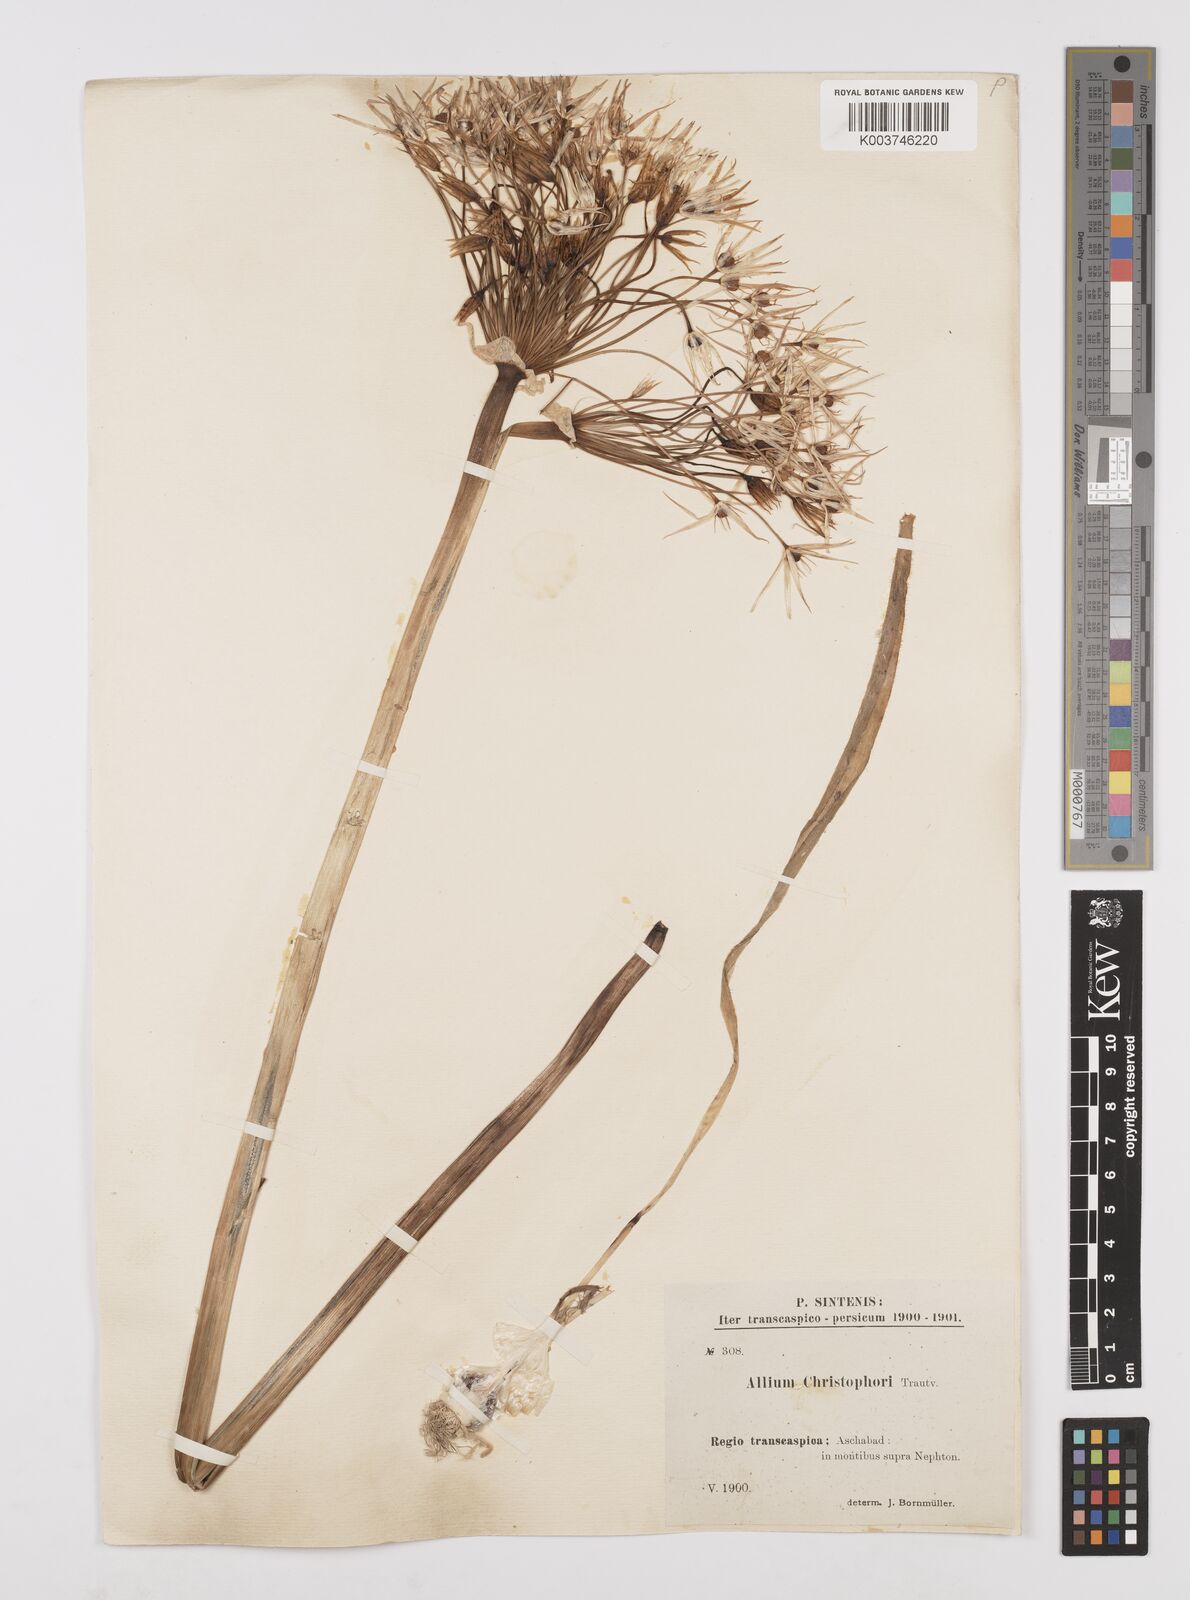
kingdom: Plantae
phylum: Tracheophyta
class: Liliopsida
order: Asparagales
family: Amaryllidaceae
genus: Allium
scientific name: Allium cristophii
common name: Persian onion
